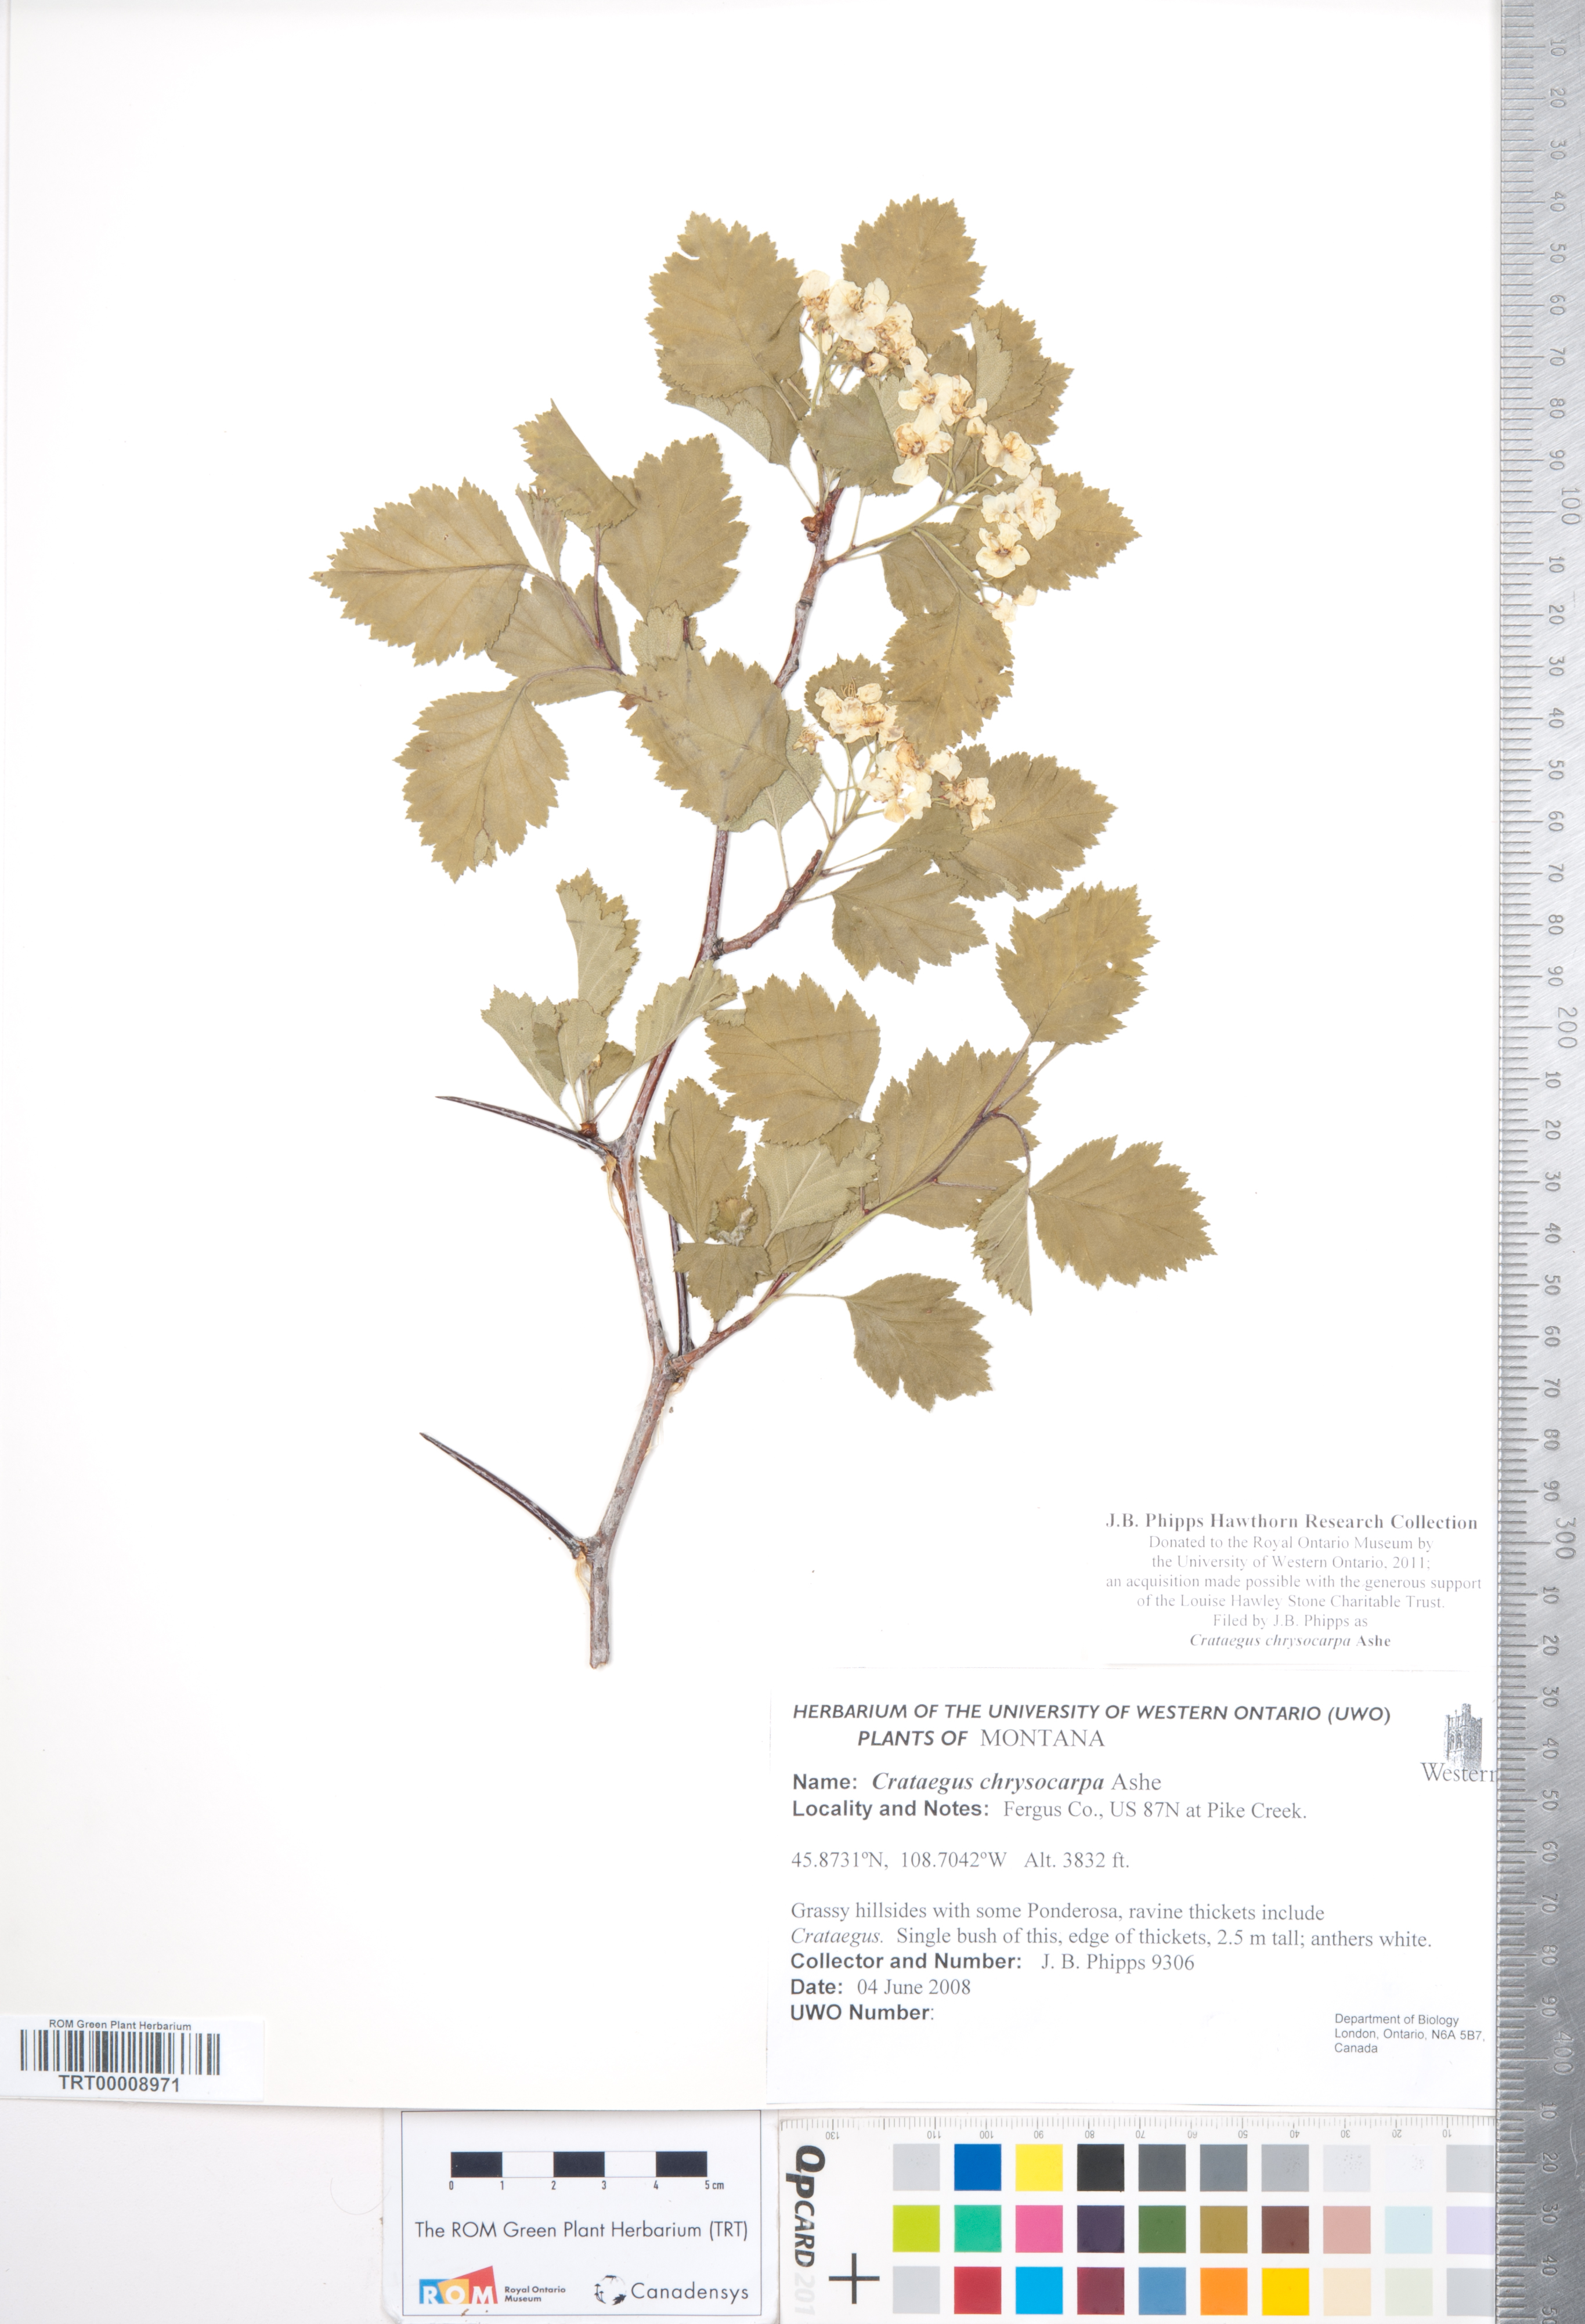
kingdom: Plantae
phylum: Tracheophyta
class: Magnoliopsida
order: Rosales
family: Rosaceae
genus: Crataegus
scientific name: Crataegus chrysocarpa
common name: Fire-berry hawthorn
